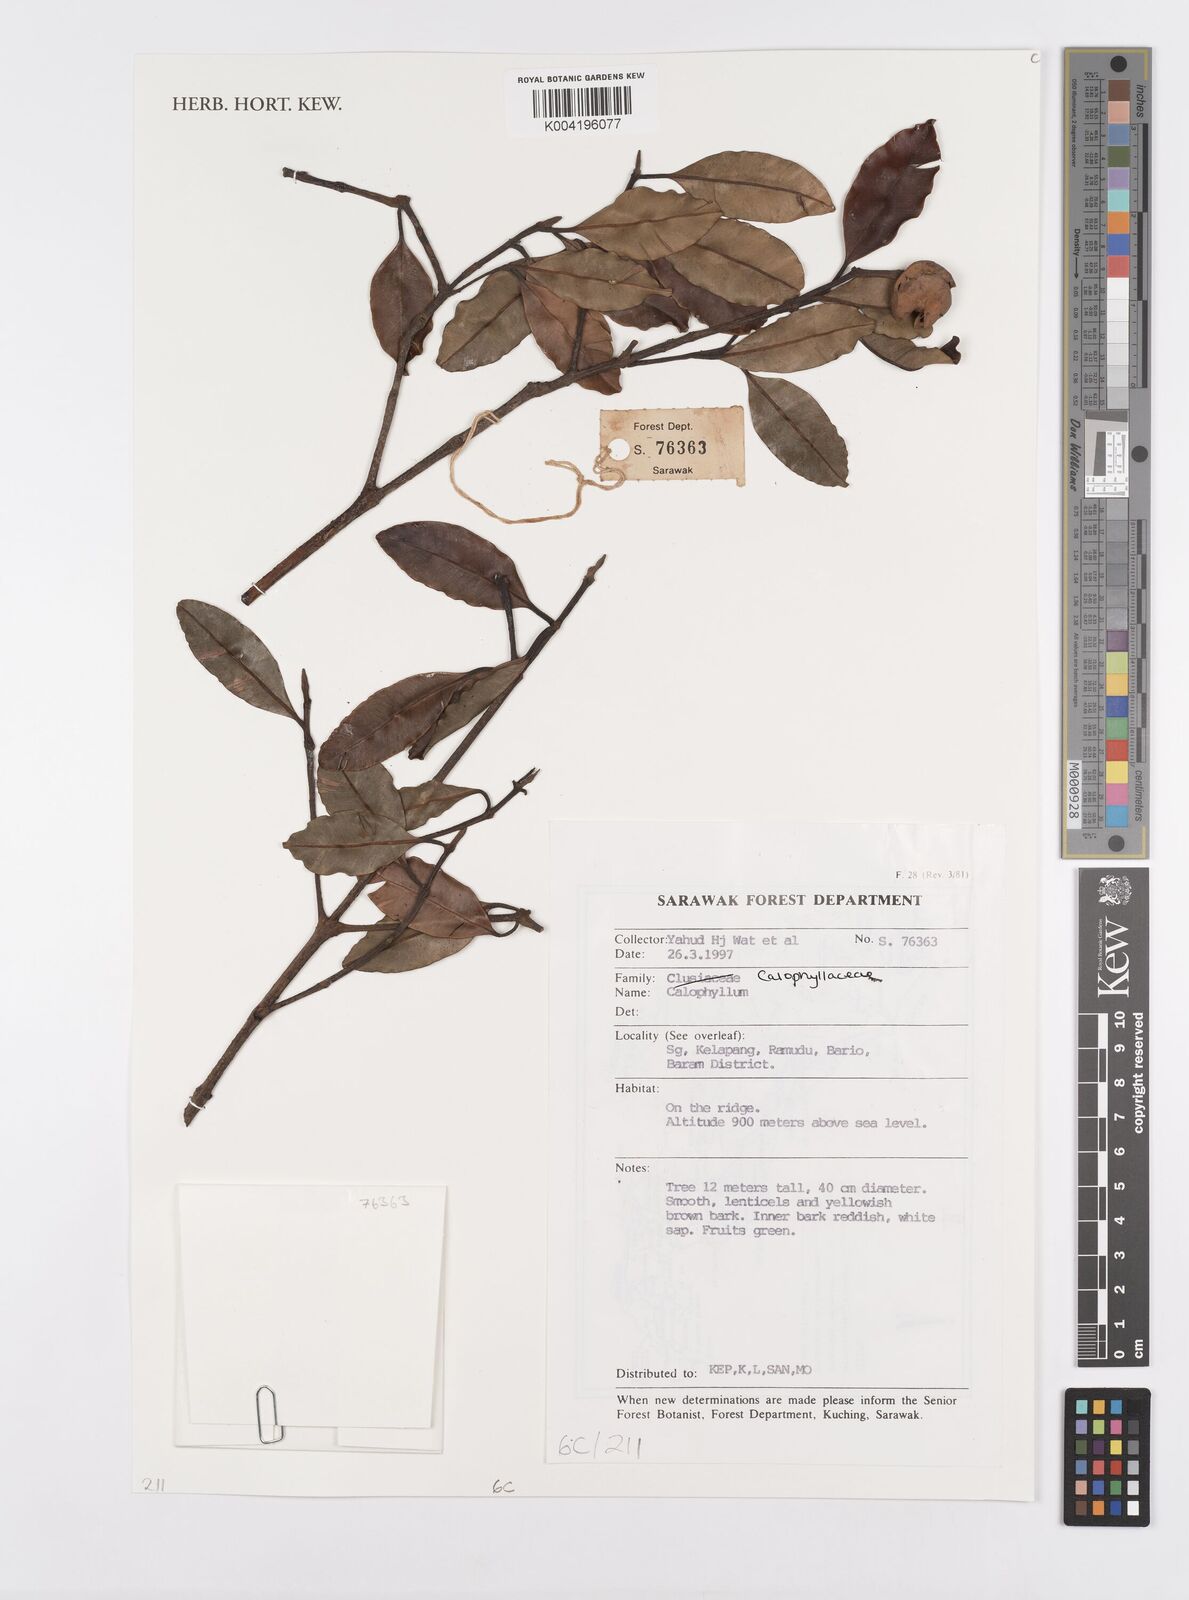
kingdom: Plantae
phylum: Tracheophyta
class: Magnoliopsida
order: Malpighiales
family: Calophyllaceae
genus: Calophyllum
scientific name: Calophyllum
